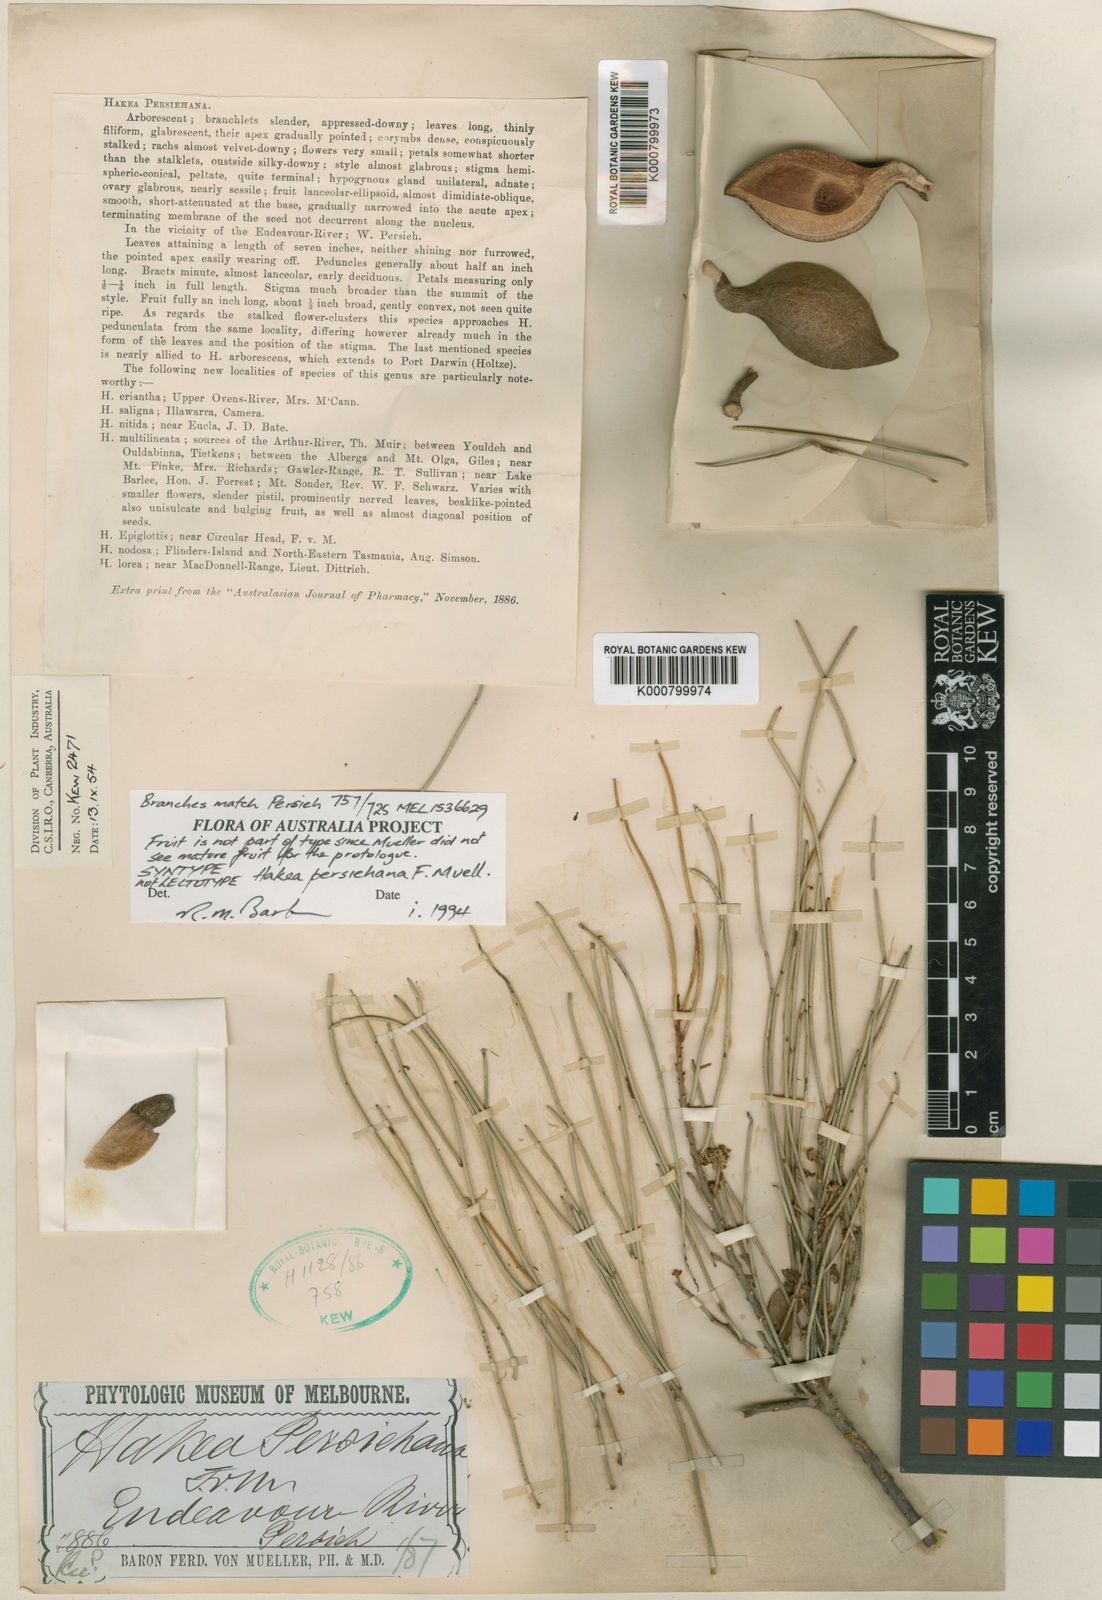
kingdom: Plantae
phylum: Tracheophyta
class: Magnoliopsida
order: Proteales
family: Proteaceae
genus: Hakea
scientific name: Hakea persiehana
